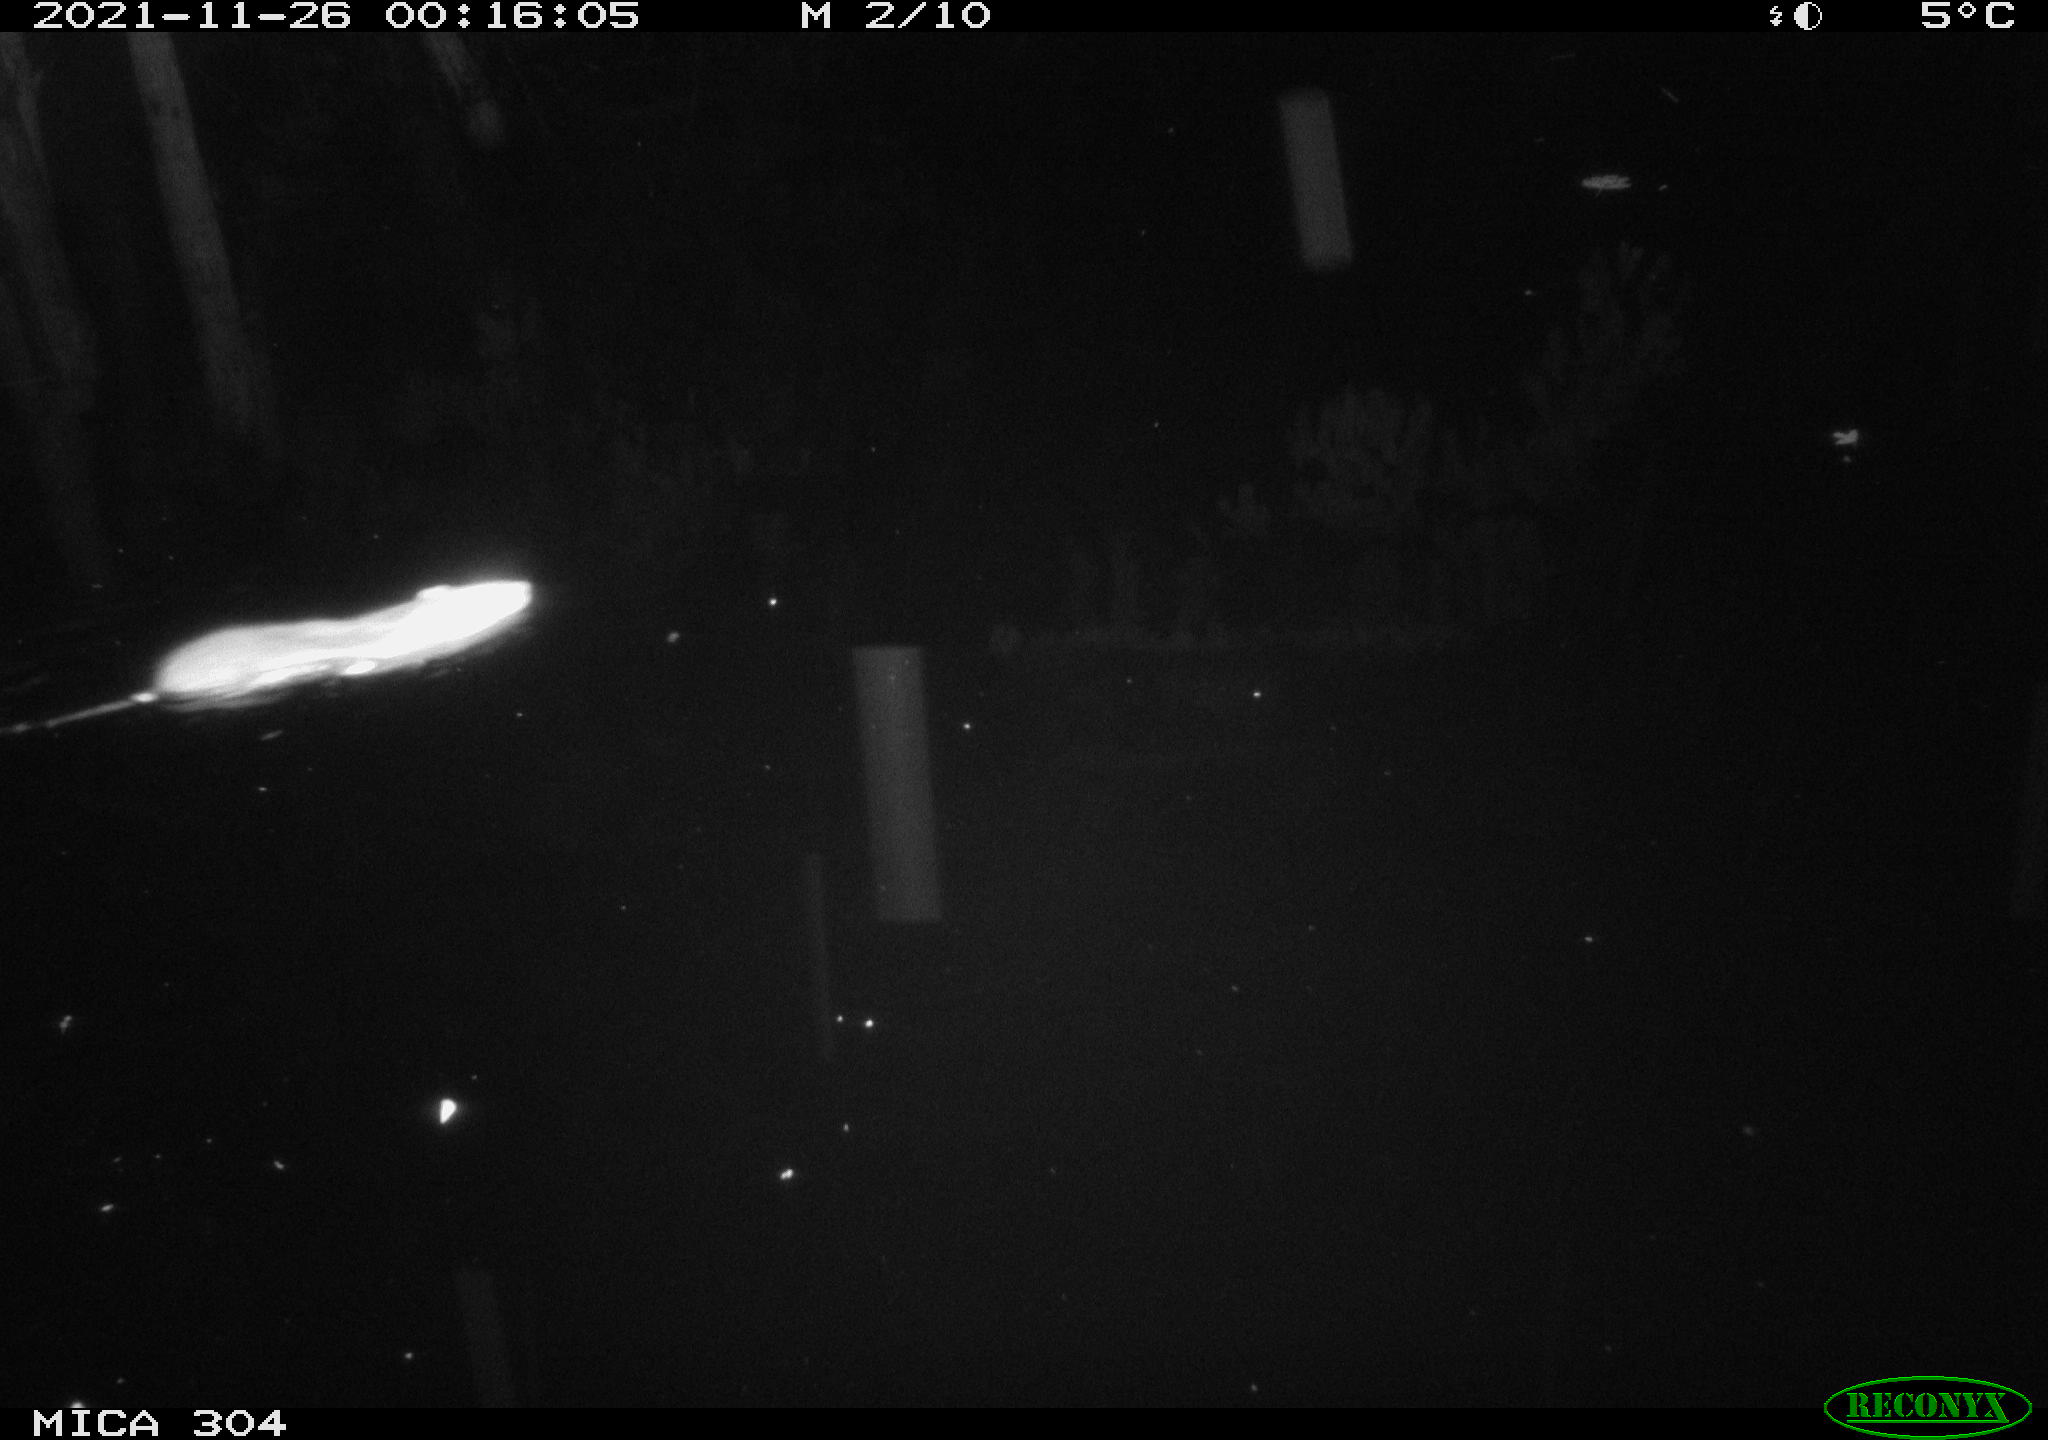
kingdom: Animalia
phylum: Chordata
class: Mammalia
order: Rodentia
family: Muridae
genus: Rattus
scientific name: Rattus norvegicus
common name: Brown rat
